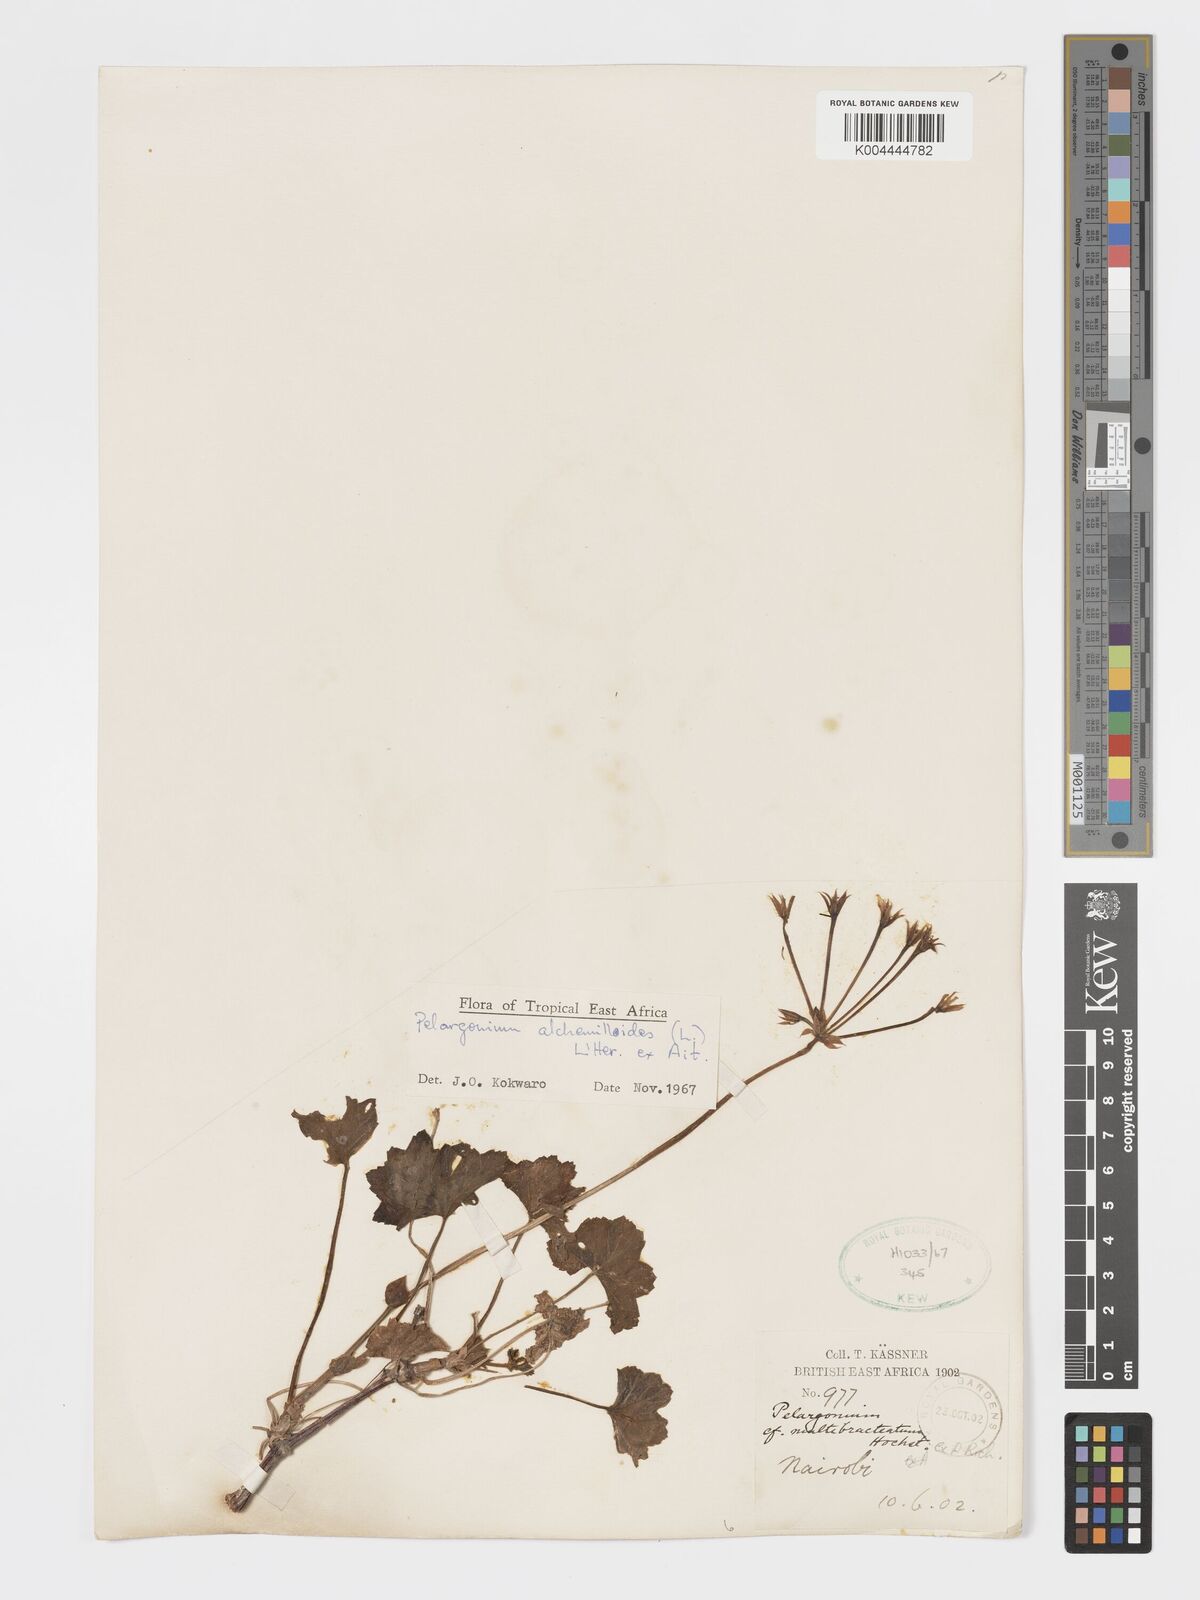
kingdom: Plantae
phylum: Tracheophyta
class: Magnoliopsida
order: Geraniales
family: Geraniaceae
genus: Pelargonium
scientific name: Pelargonium alchemilloides
